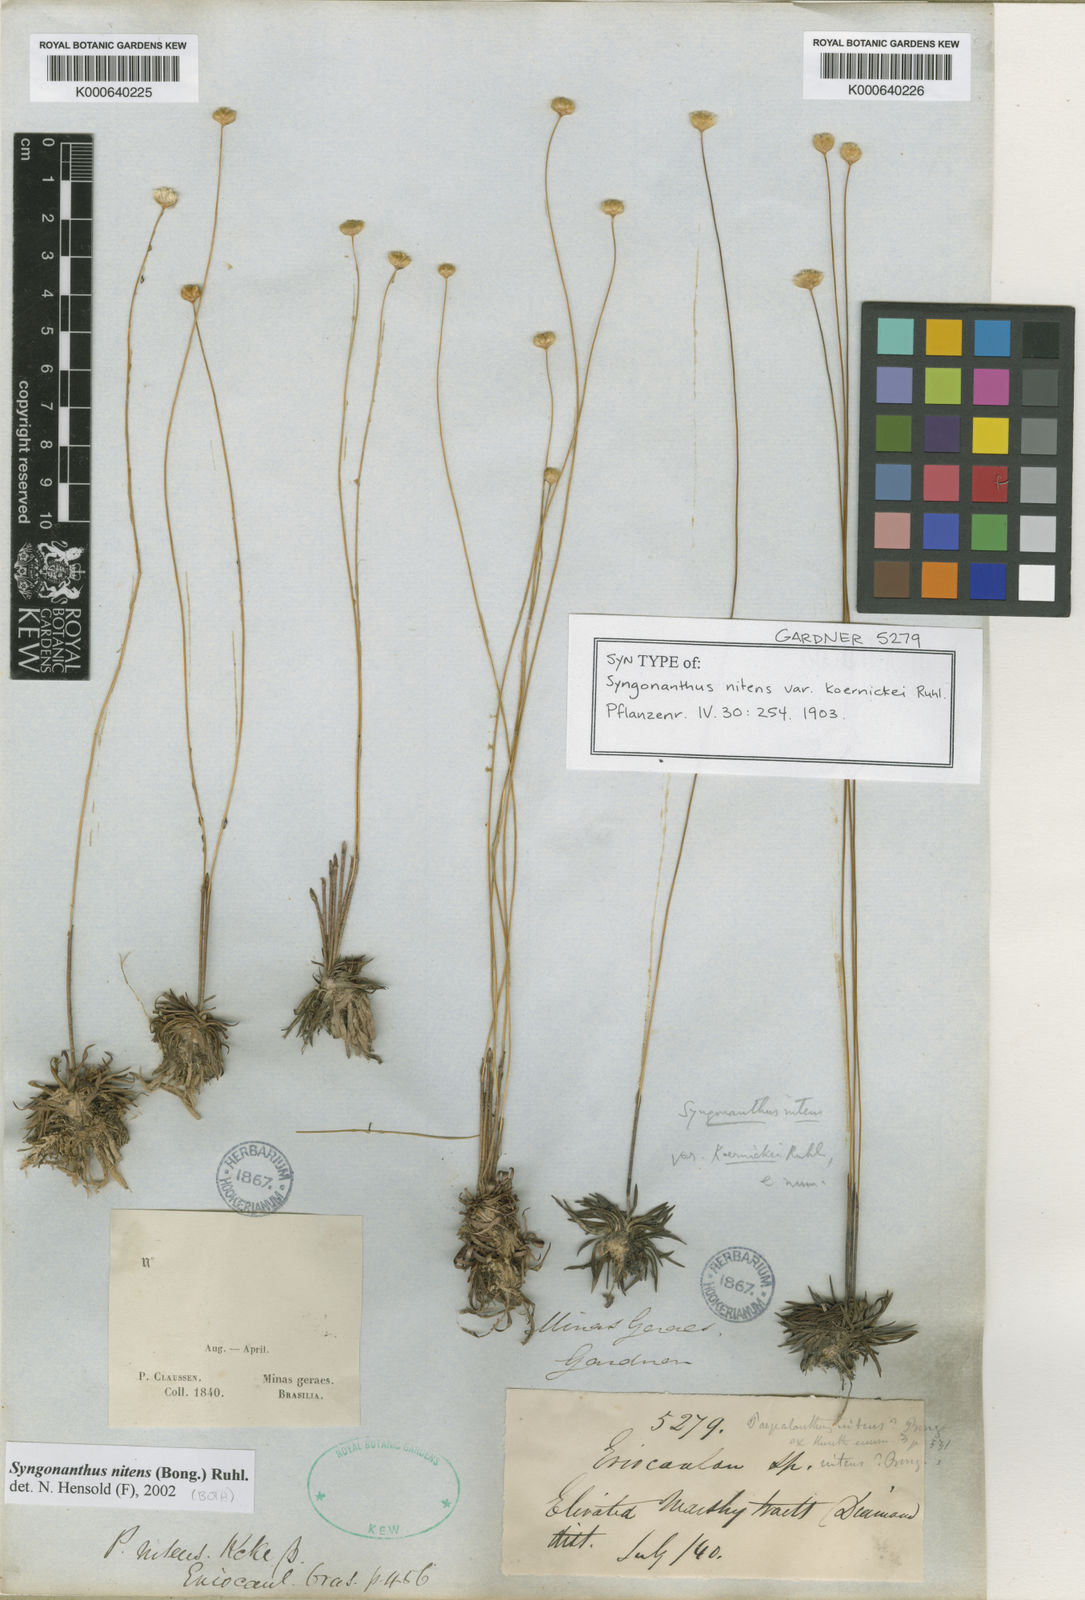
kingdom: Plantae
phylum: Tracheophyta
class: Liliopsida
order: Poales
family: Eriocaulaceae
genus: Syngonanthus
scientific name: Syngonanthus nitens
